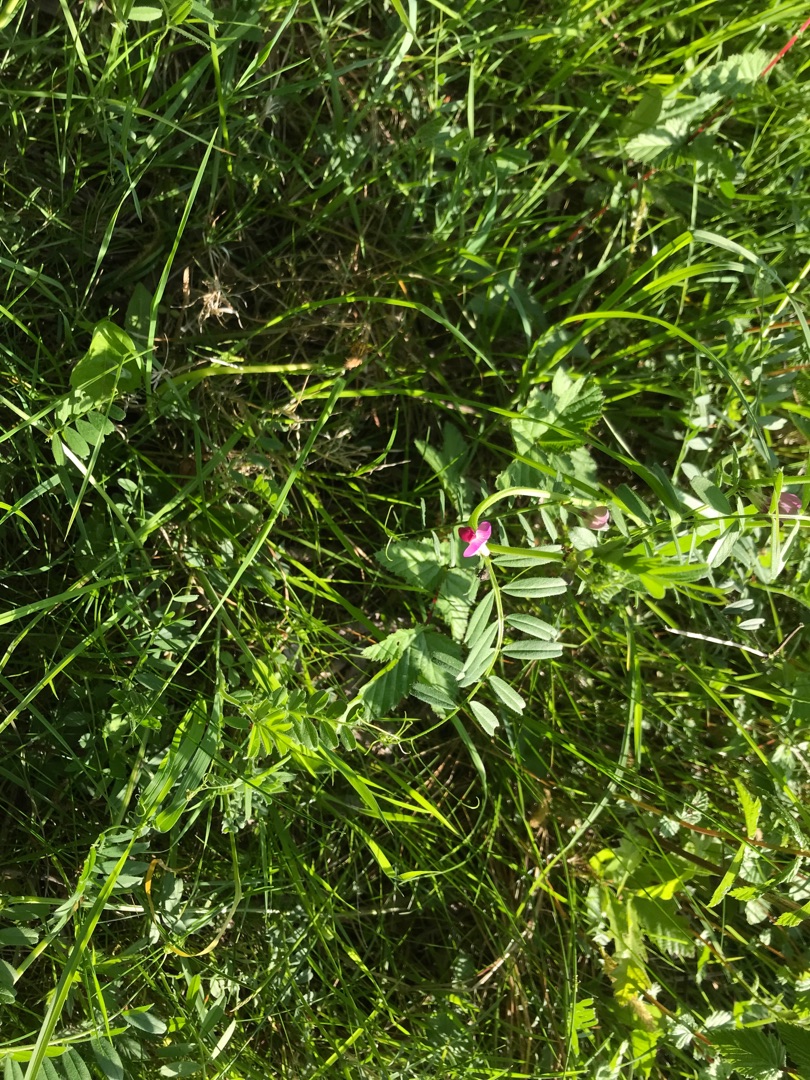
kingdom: Plantae
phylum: Tracheophyta
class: Magnoliopsida
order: Fabales
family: Fabaceae
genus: Vicia
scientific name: Vicia sativa
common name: Smalbladet vikke
